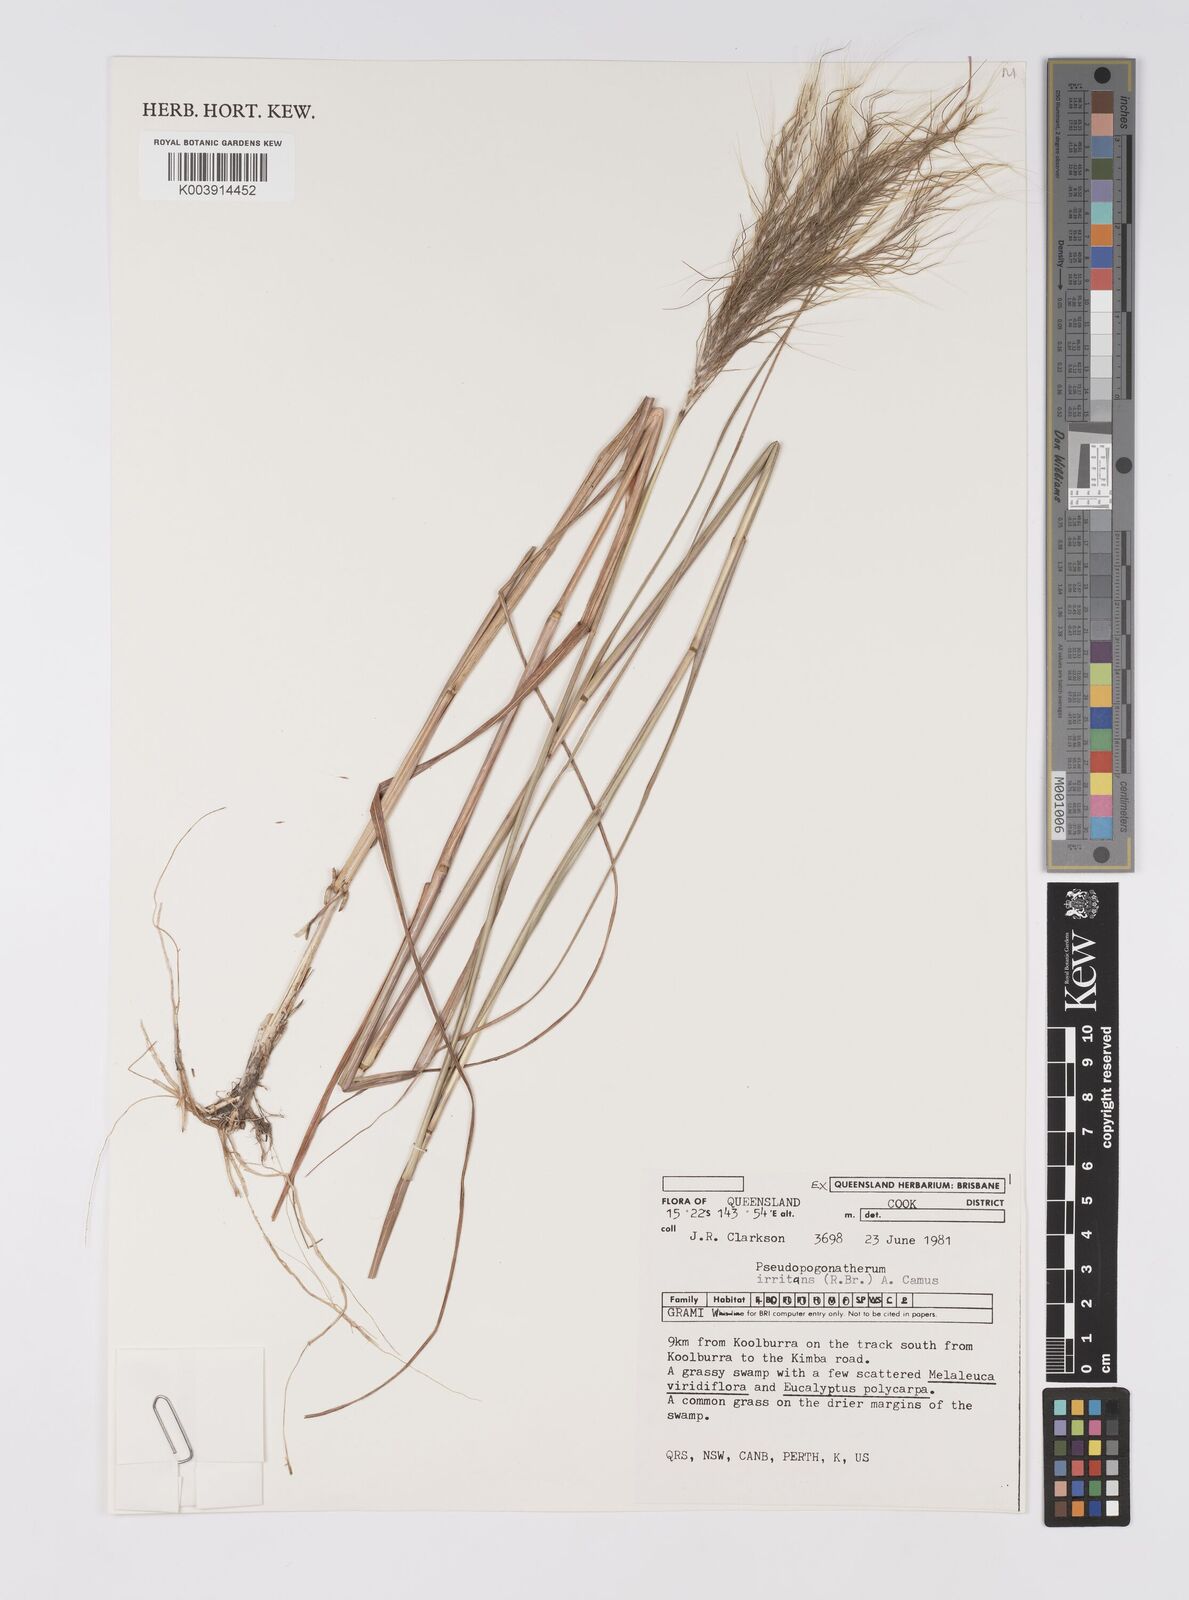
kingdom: Plantae
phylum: Tracheophyta
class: Liliopsida
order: Poales
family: Poaceae
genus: Pseudopogonatherum
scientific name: Pseudopogonatherum irritans
